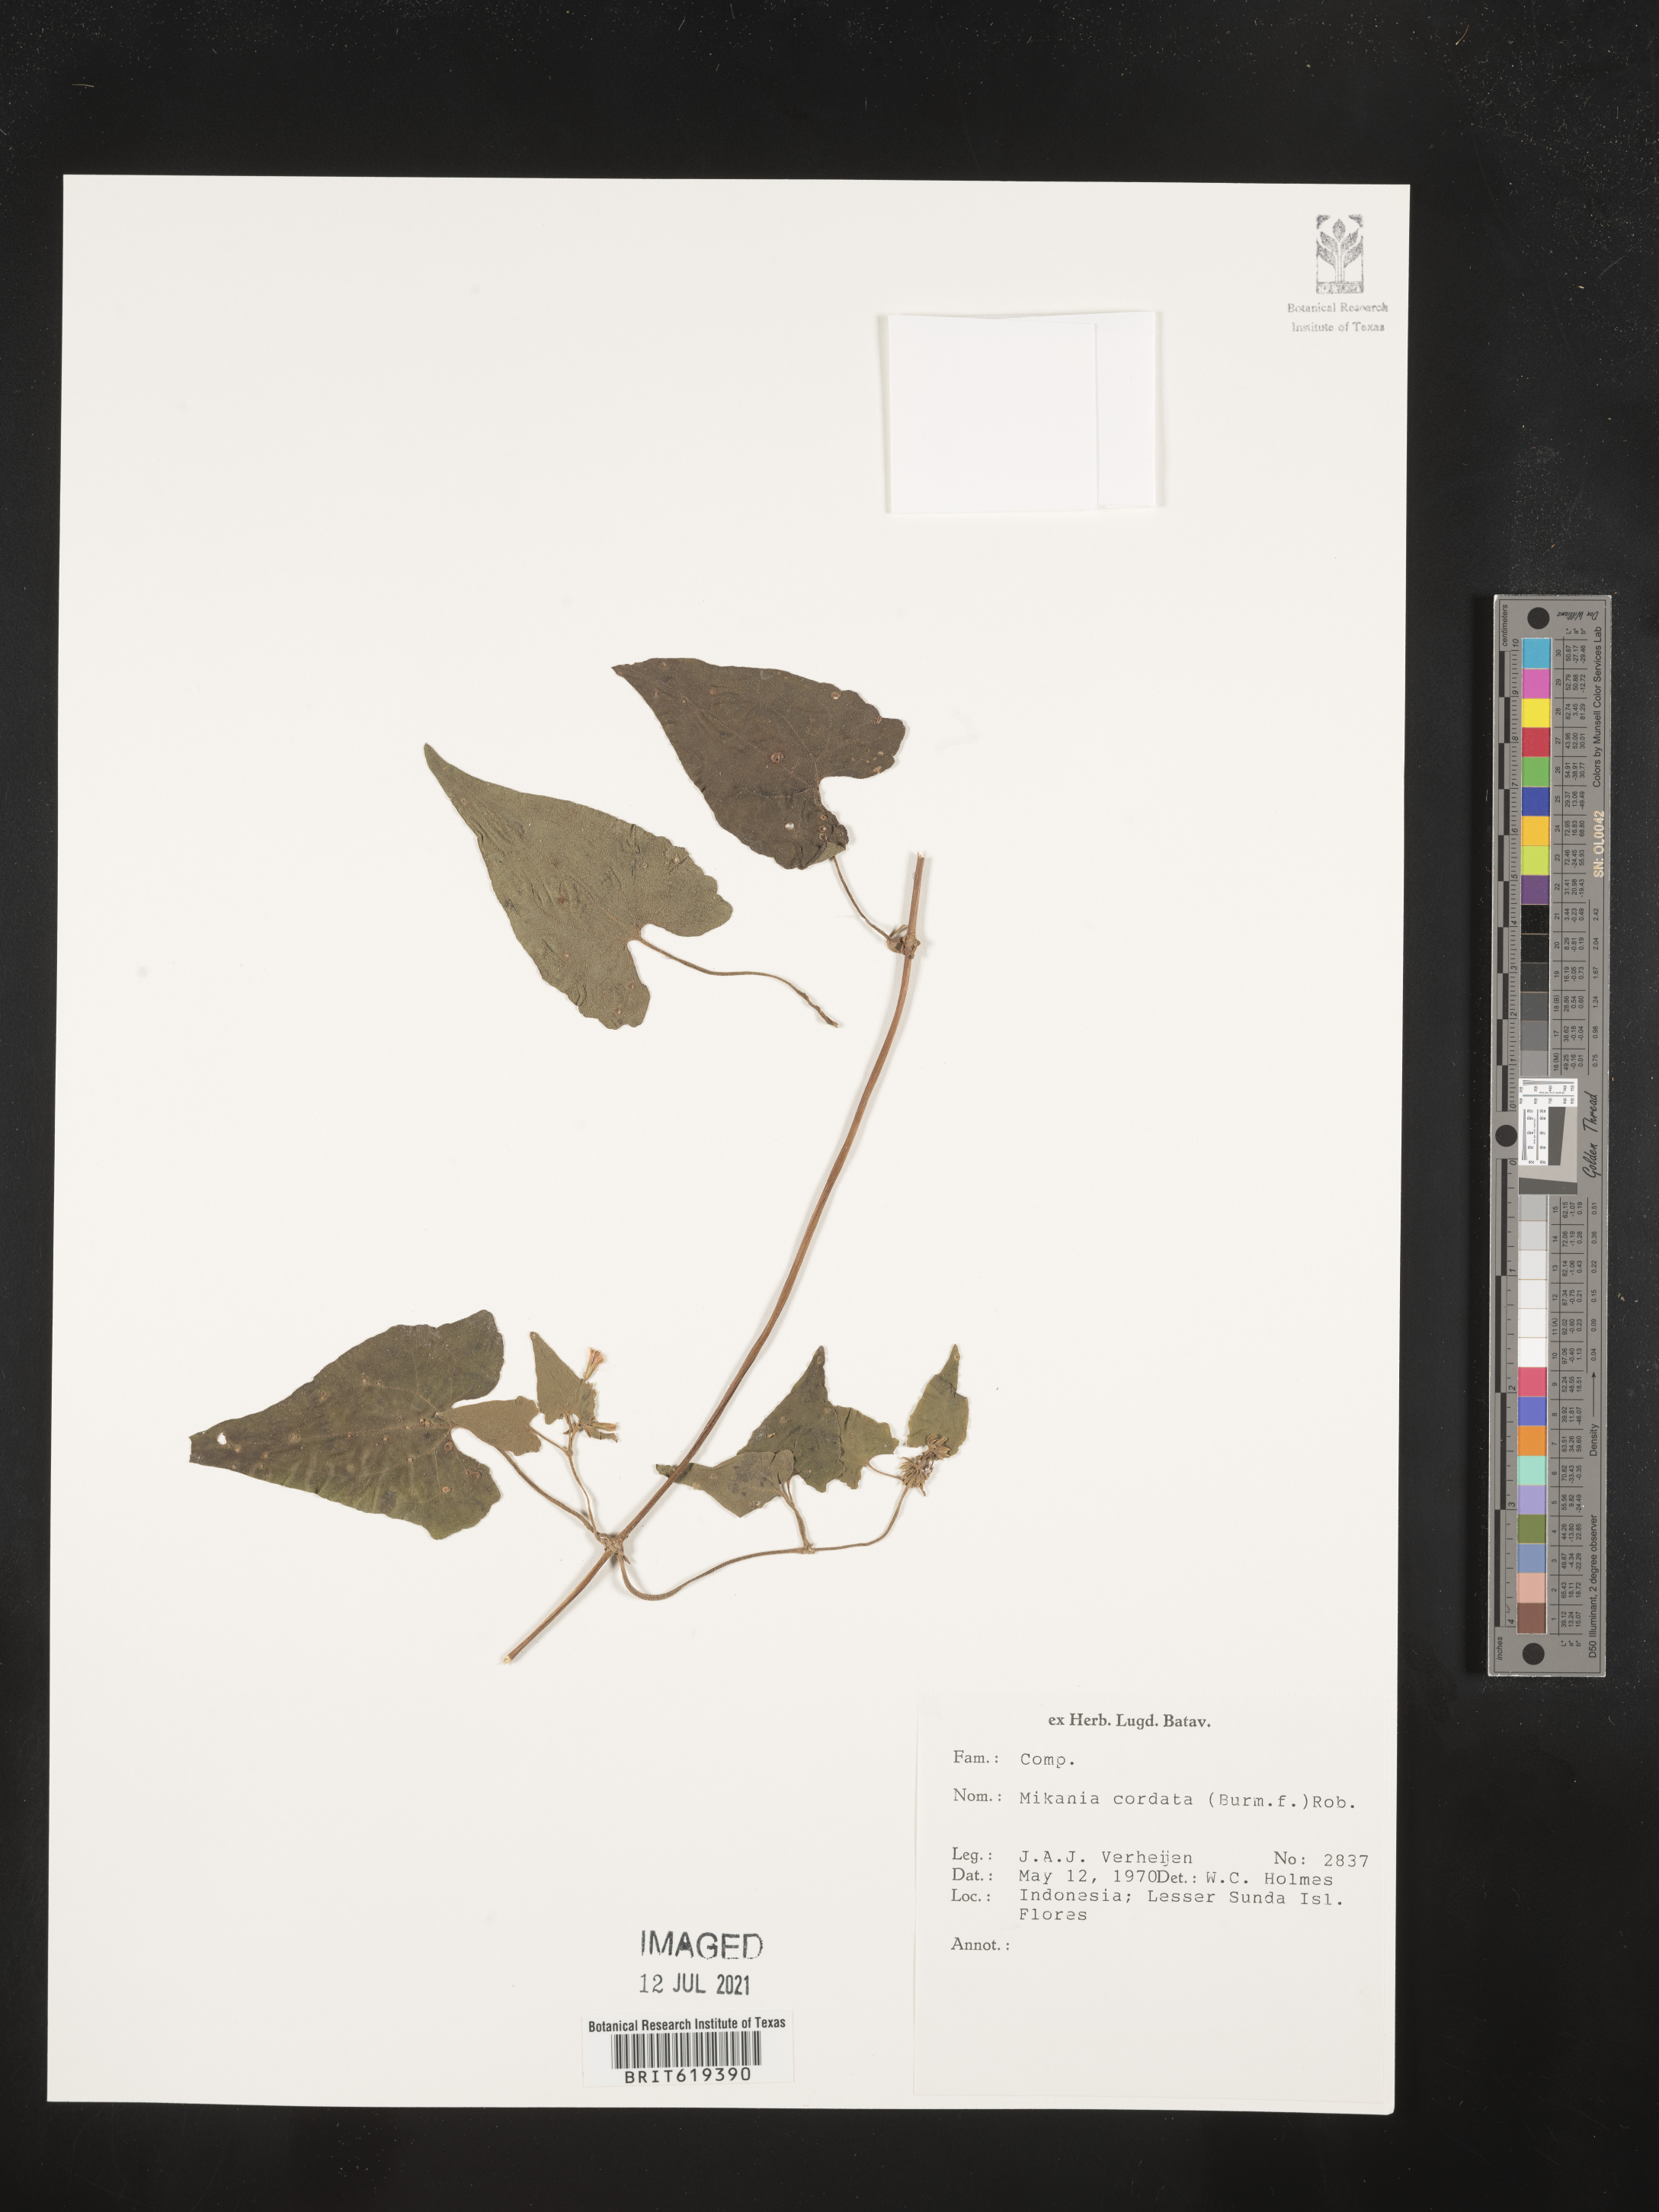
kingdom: Plantae
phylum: Tracheophyta
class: Magnoliopsida
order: Asterales
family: Asteraceae
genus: Mikania
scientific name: Mikania cordata
